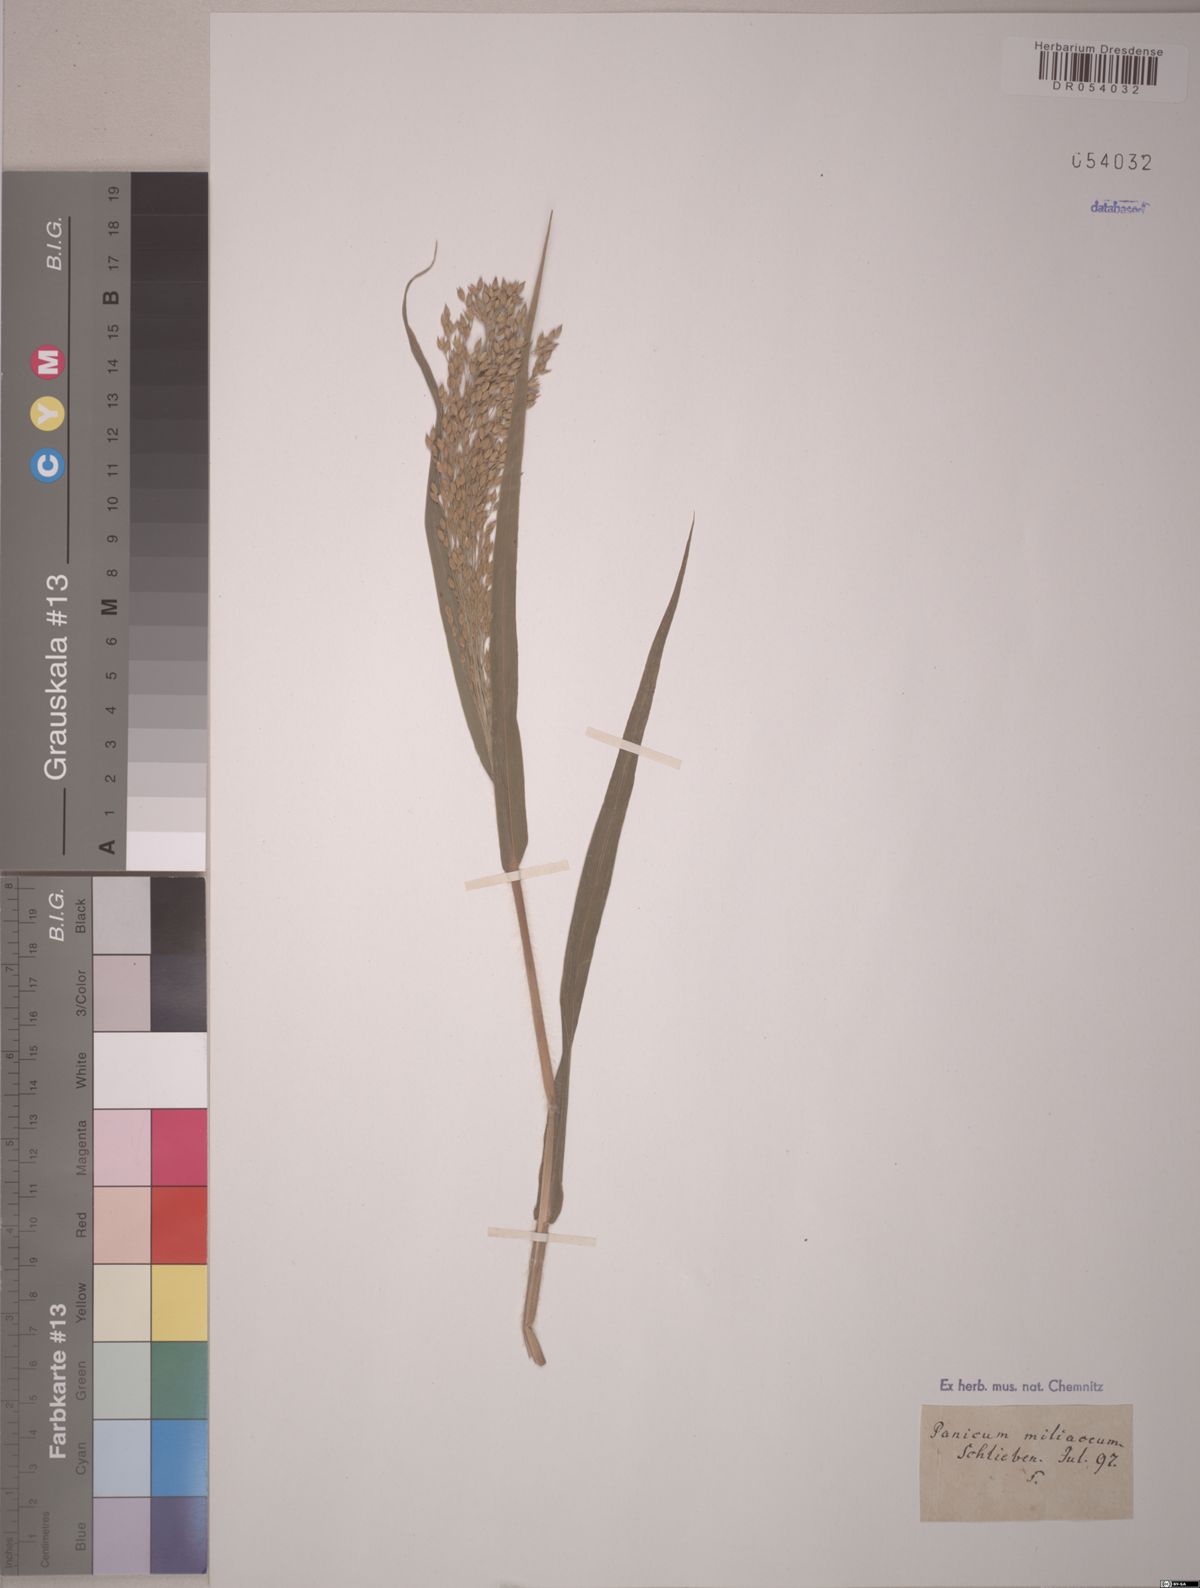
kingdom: Plantae
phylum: Tracheophyta
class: Liliopsida
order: Poales
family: Poaceae
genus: Panicum
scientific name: Panicum miliaceum
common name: Common millet
